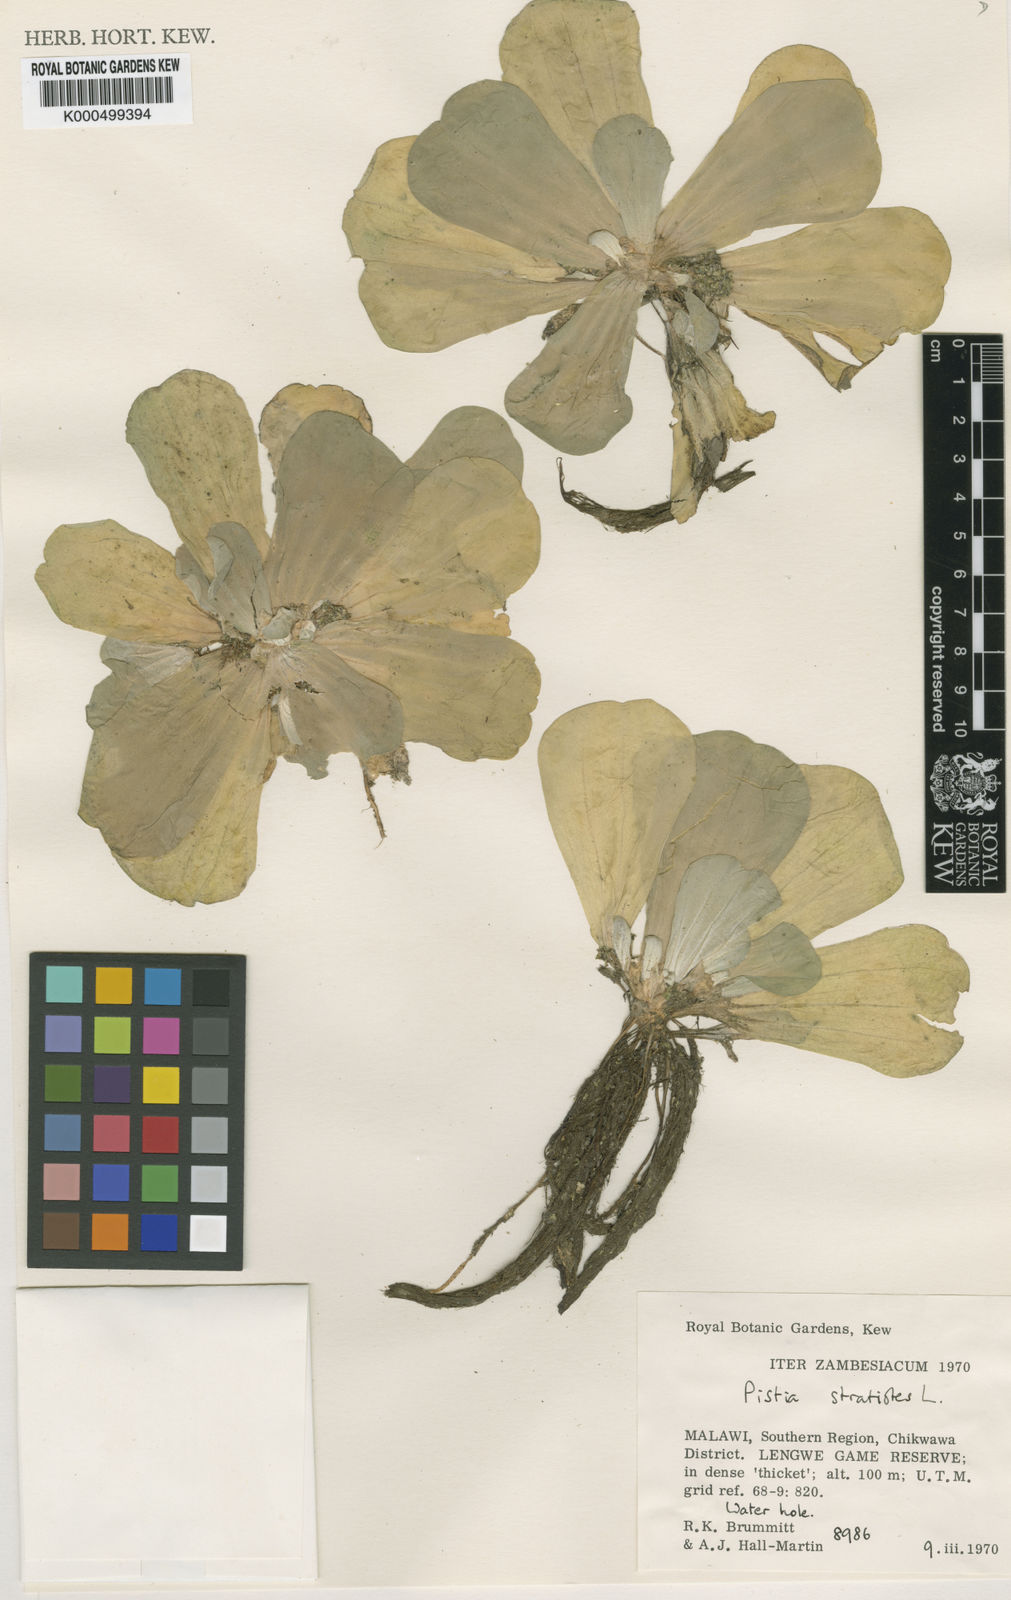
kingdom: Plantae
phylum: Tracheophyta
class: Liliopsida
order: Alismatales
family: Araceae
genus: Pistia
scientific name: Pistia
